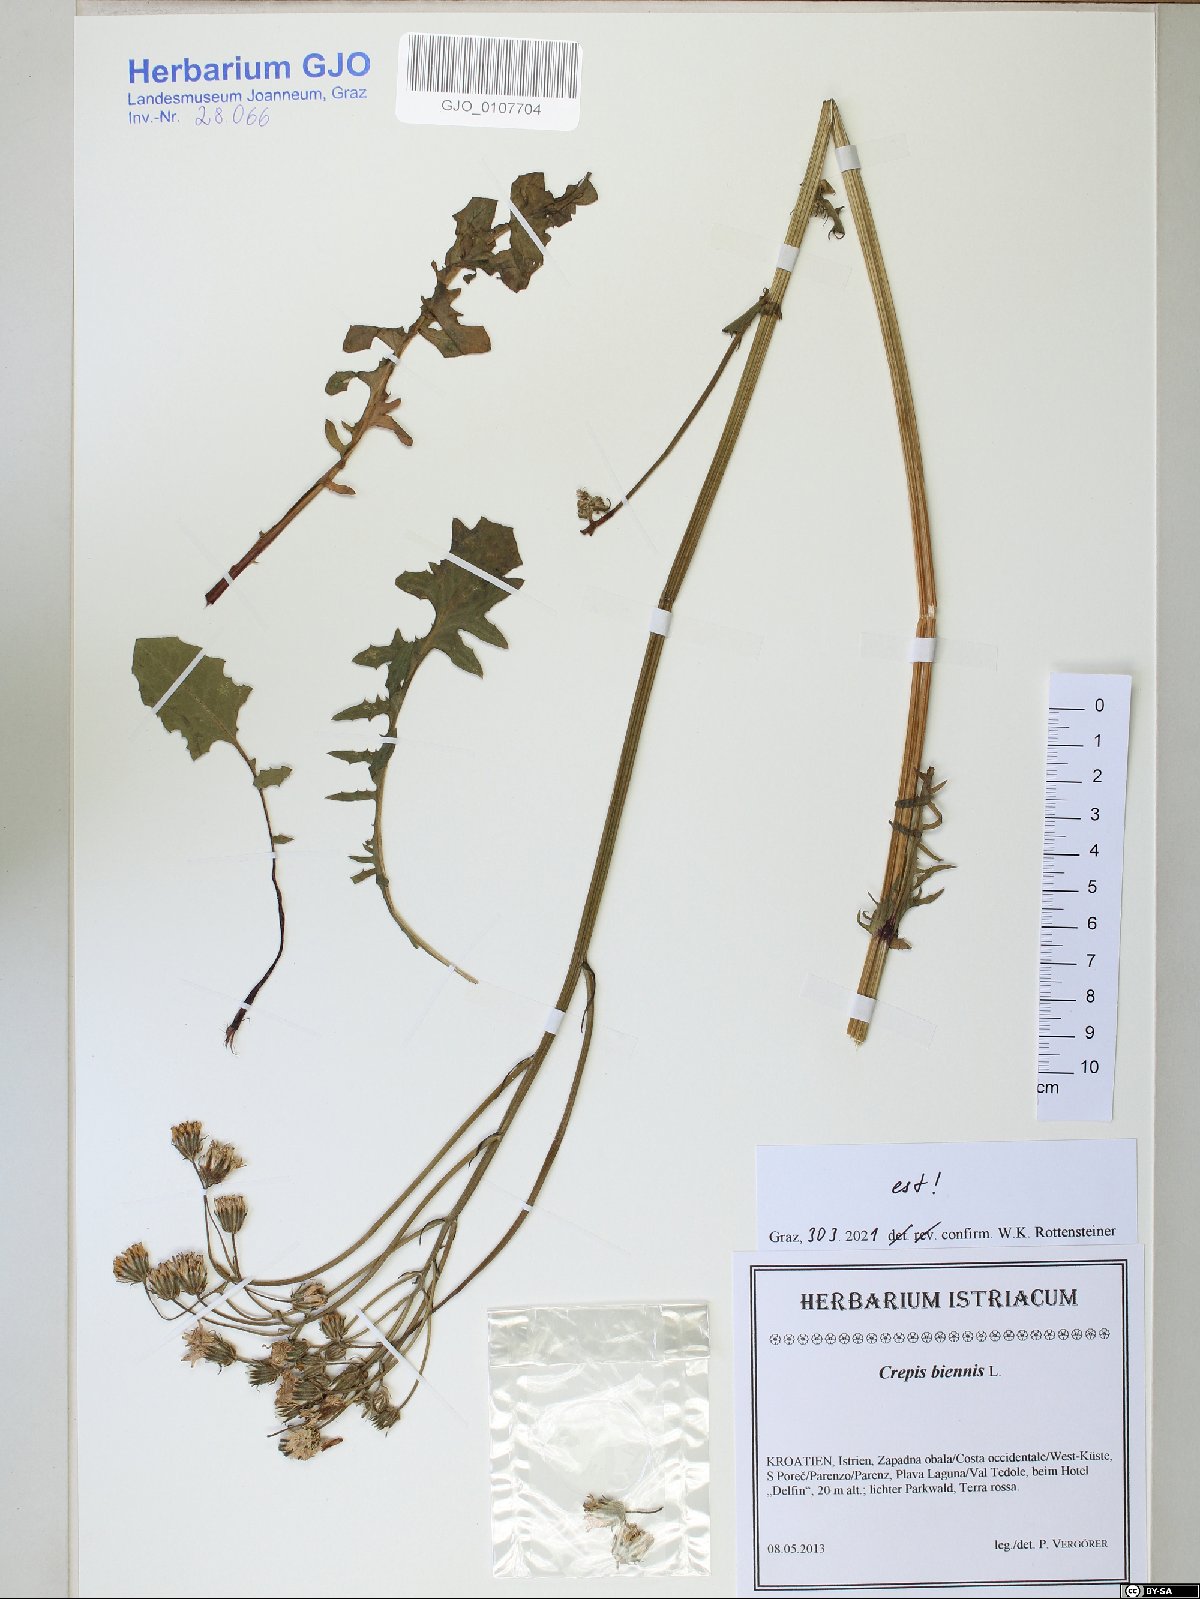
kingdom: Plantae
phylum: Tracheophyta
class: Magnoliopsida
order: Asterales
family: Asteraceae
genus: Crepis
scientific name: Crepis biennis
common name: Rough hawk's-beard
